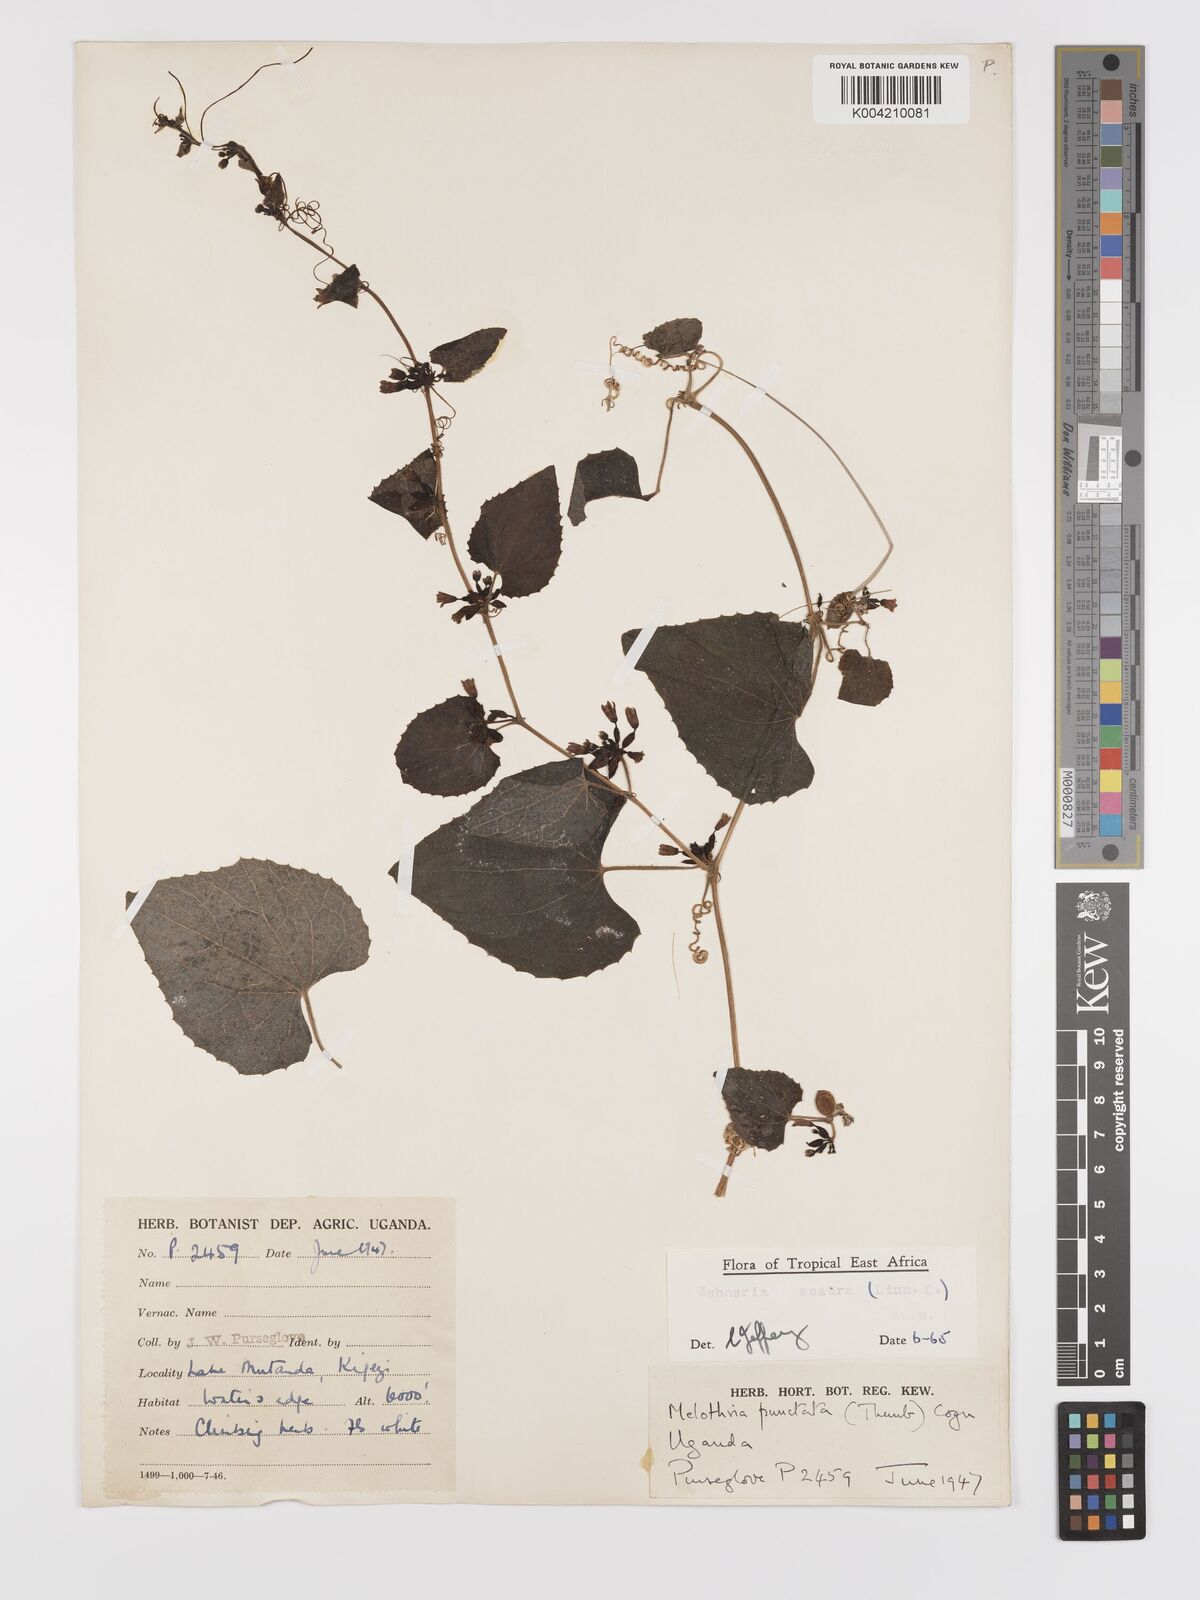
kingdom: Plantae
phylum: Tracheophyta
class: Magnoliopsida
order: Cucurbitales
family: Cucurbitaceae
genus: Zehneria
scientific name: Zehneria scabra
